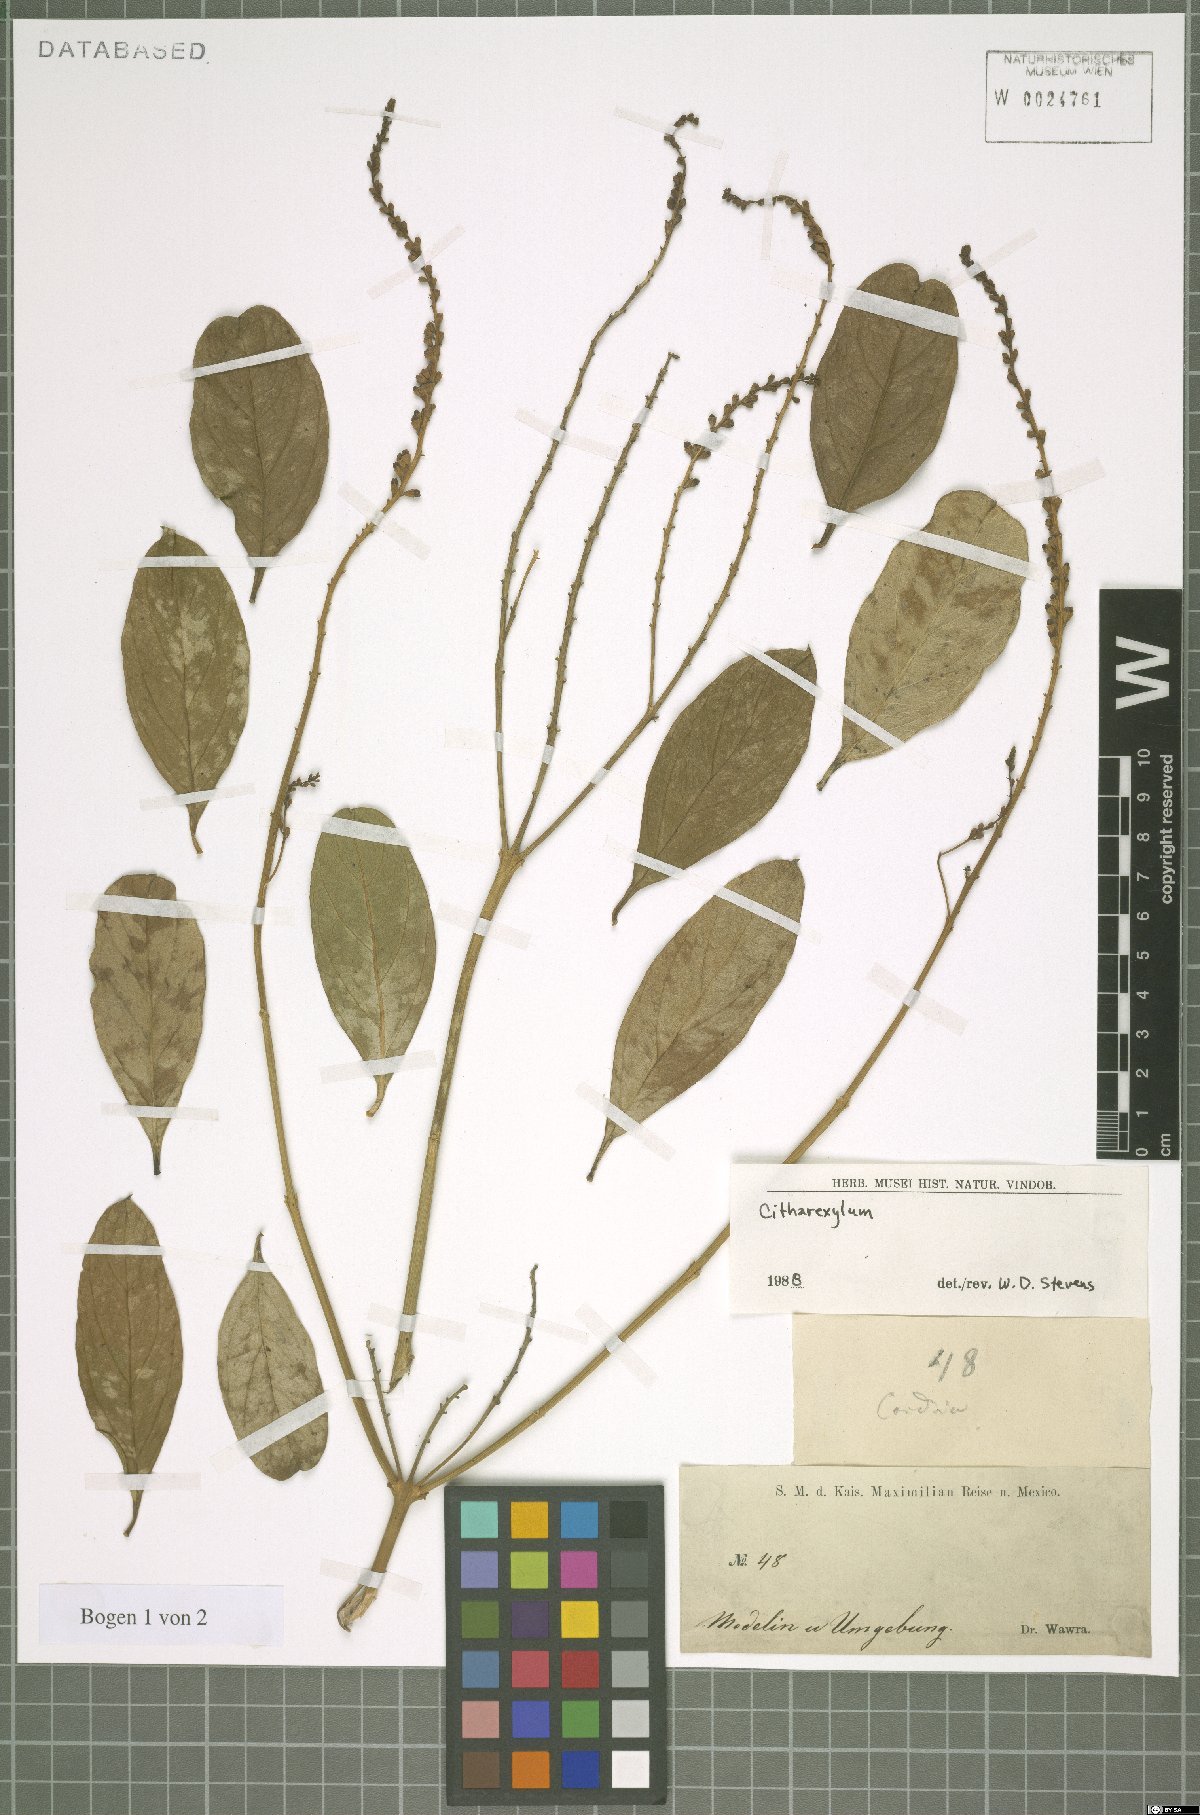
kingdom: Plantae
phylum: Tracheophyta
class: Magnoliopsida
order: Lamiales
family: Verbenaceae
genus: Citharexylum
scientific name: Citharexylum
